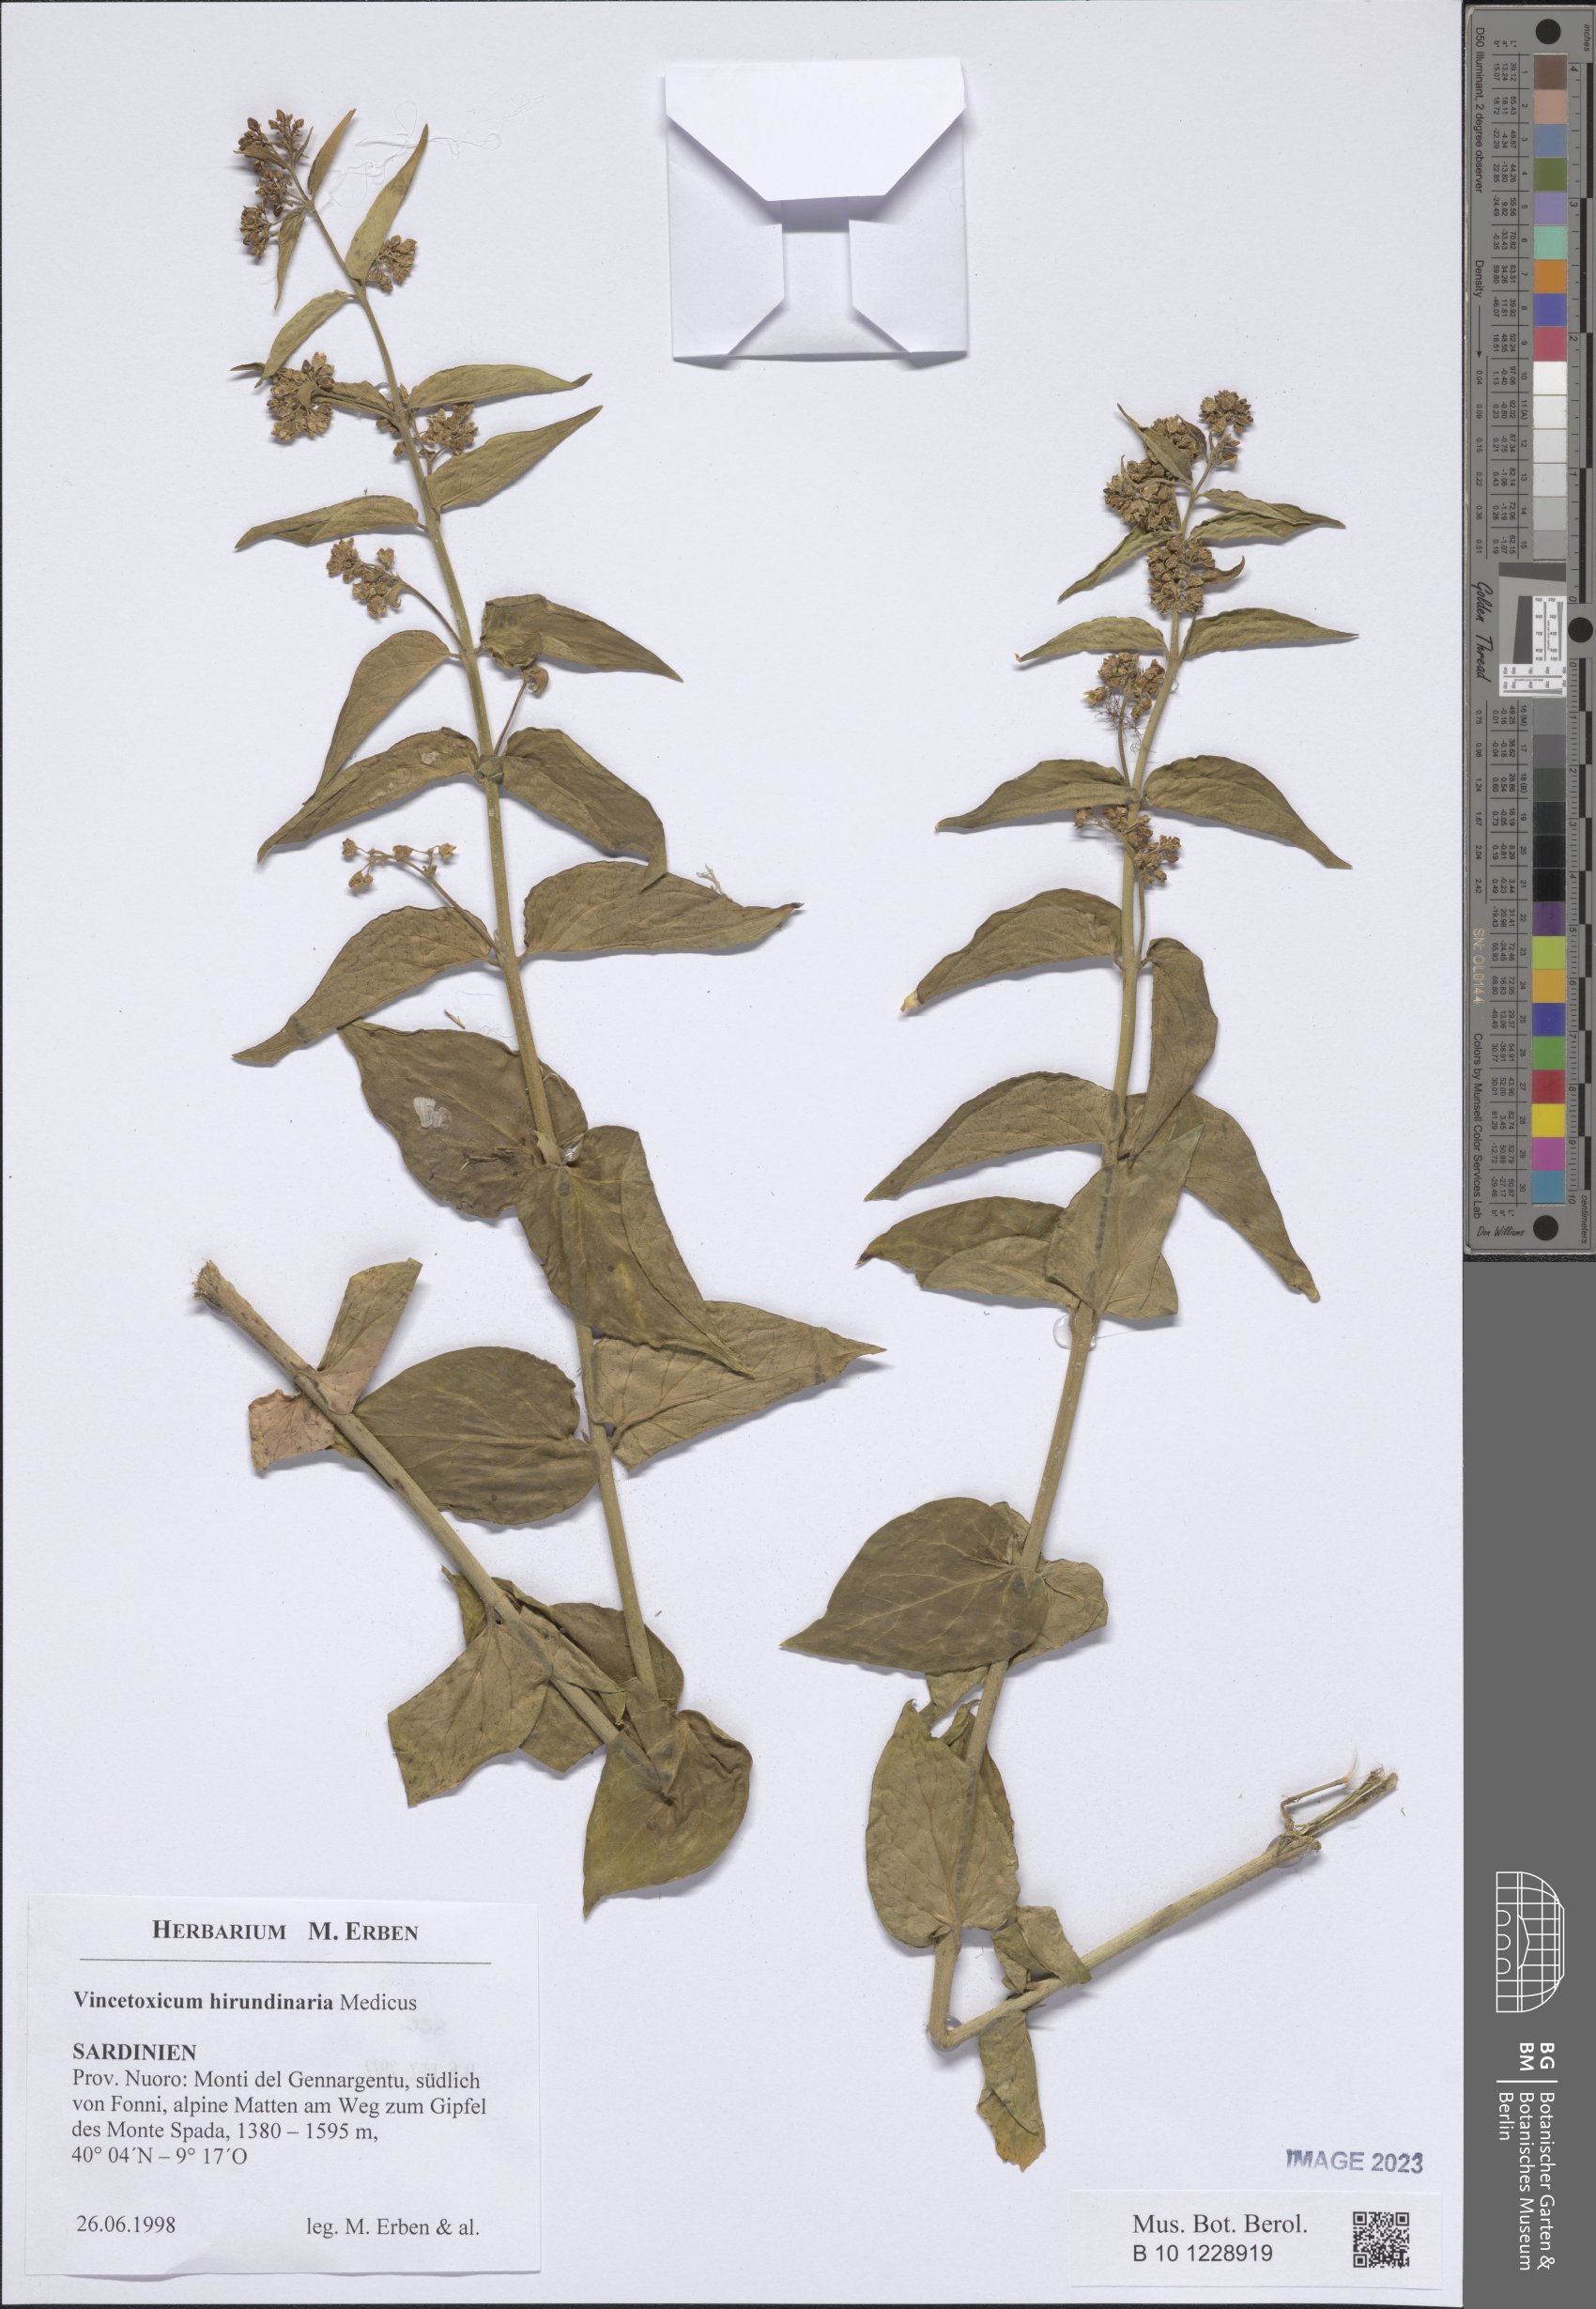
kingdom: Plantae
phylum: Tracheophyta
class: Magnoliopsida
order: Gentianales
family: Apocynaceae
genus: Vincetoxicum
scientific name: Vincetoxicum hirundinaria
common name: White swallowwort
